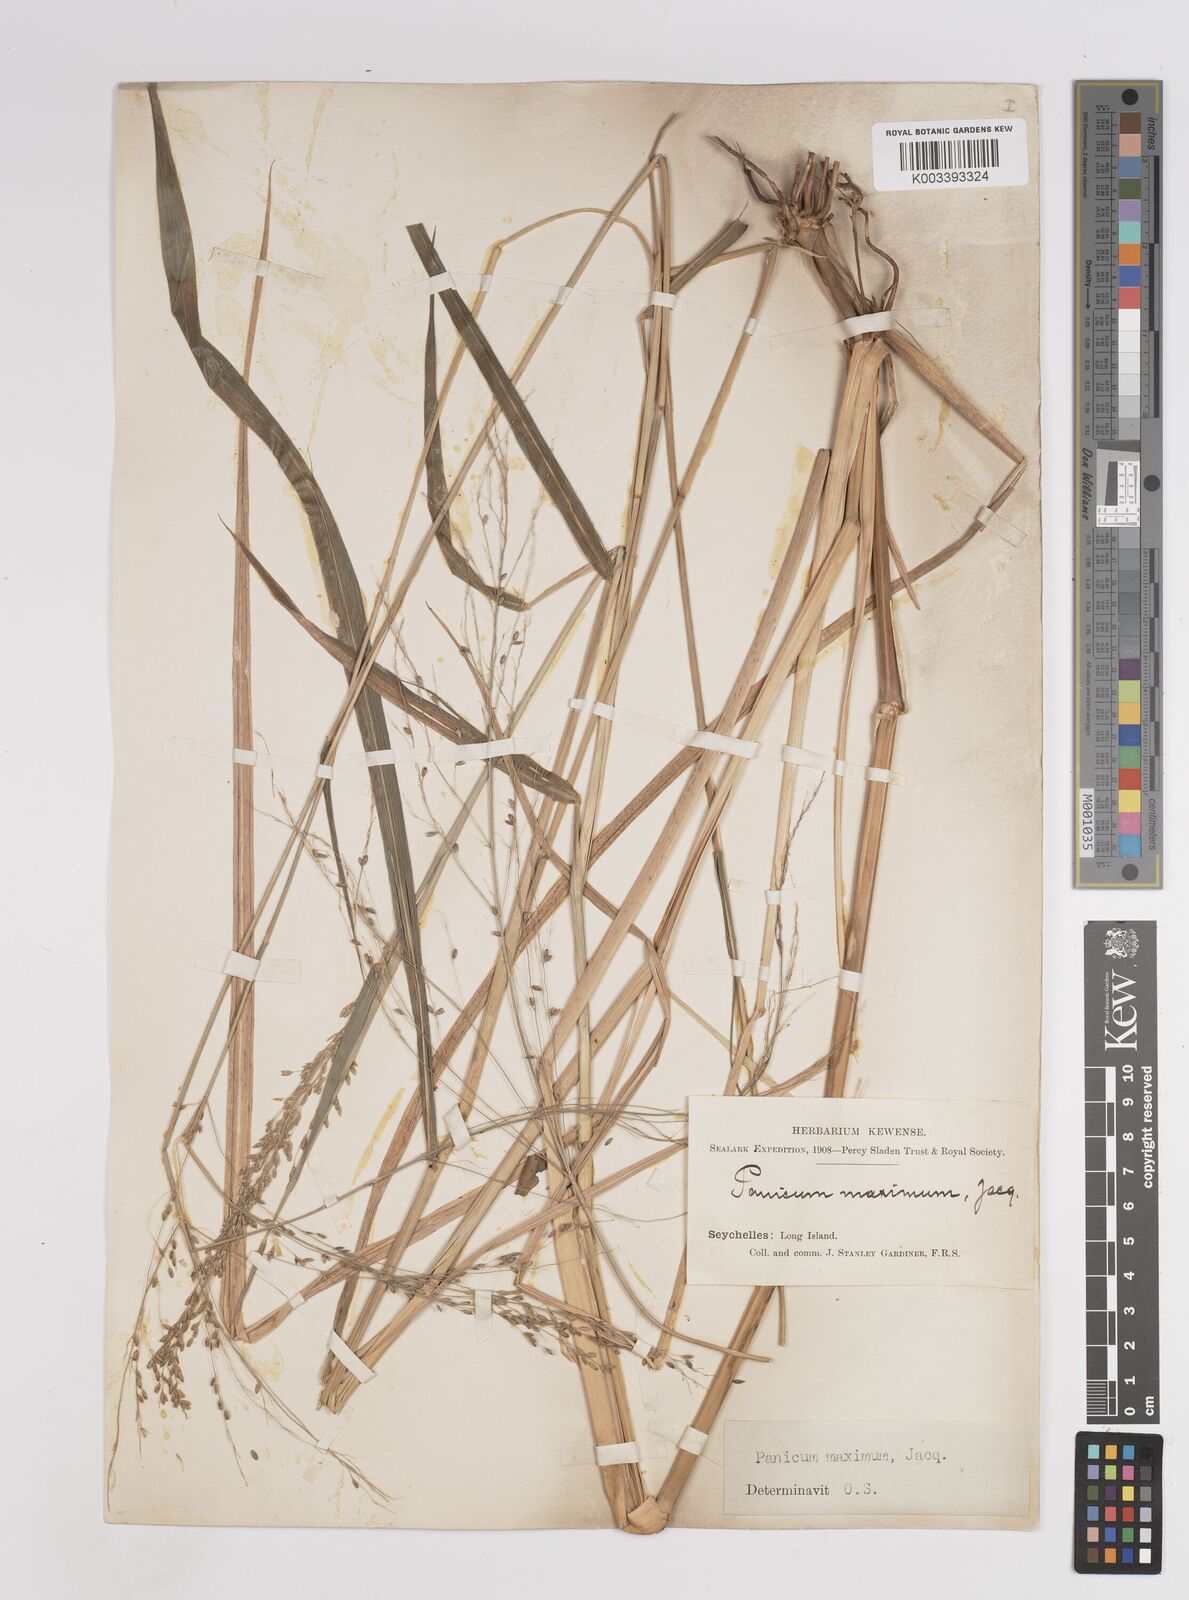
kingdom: Plantae
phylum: Tracheophyta
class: Liliopsida
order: Poales
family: Poaceae
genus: Megathyrsus
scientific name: Megathyrsus maximus
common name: Guineagrass
